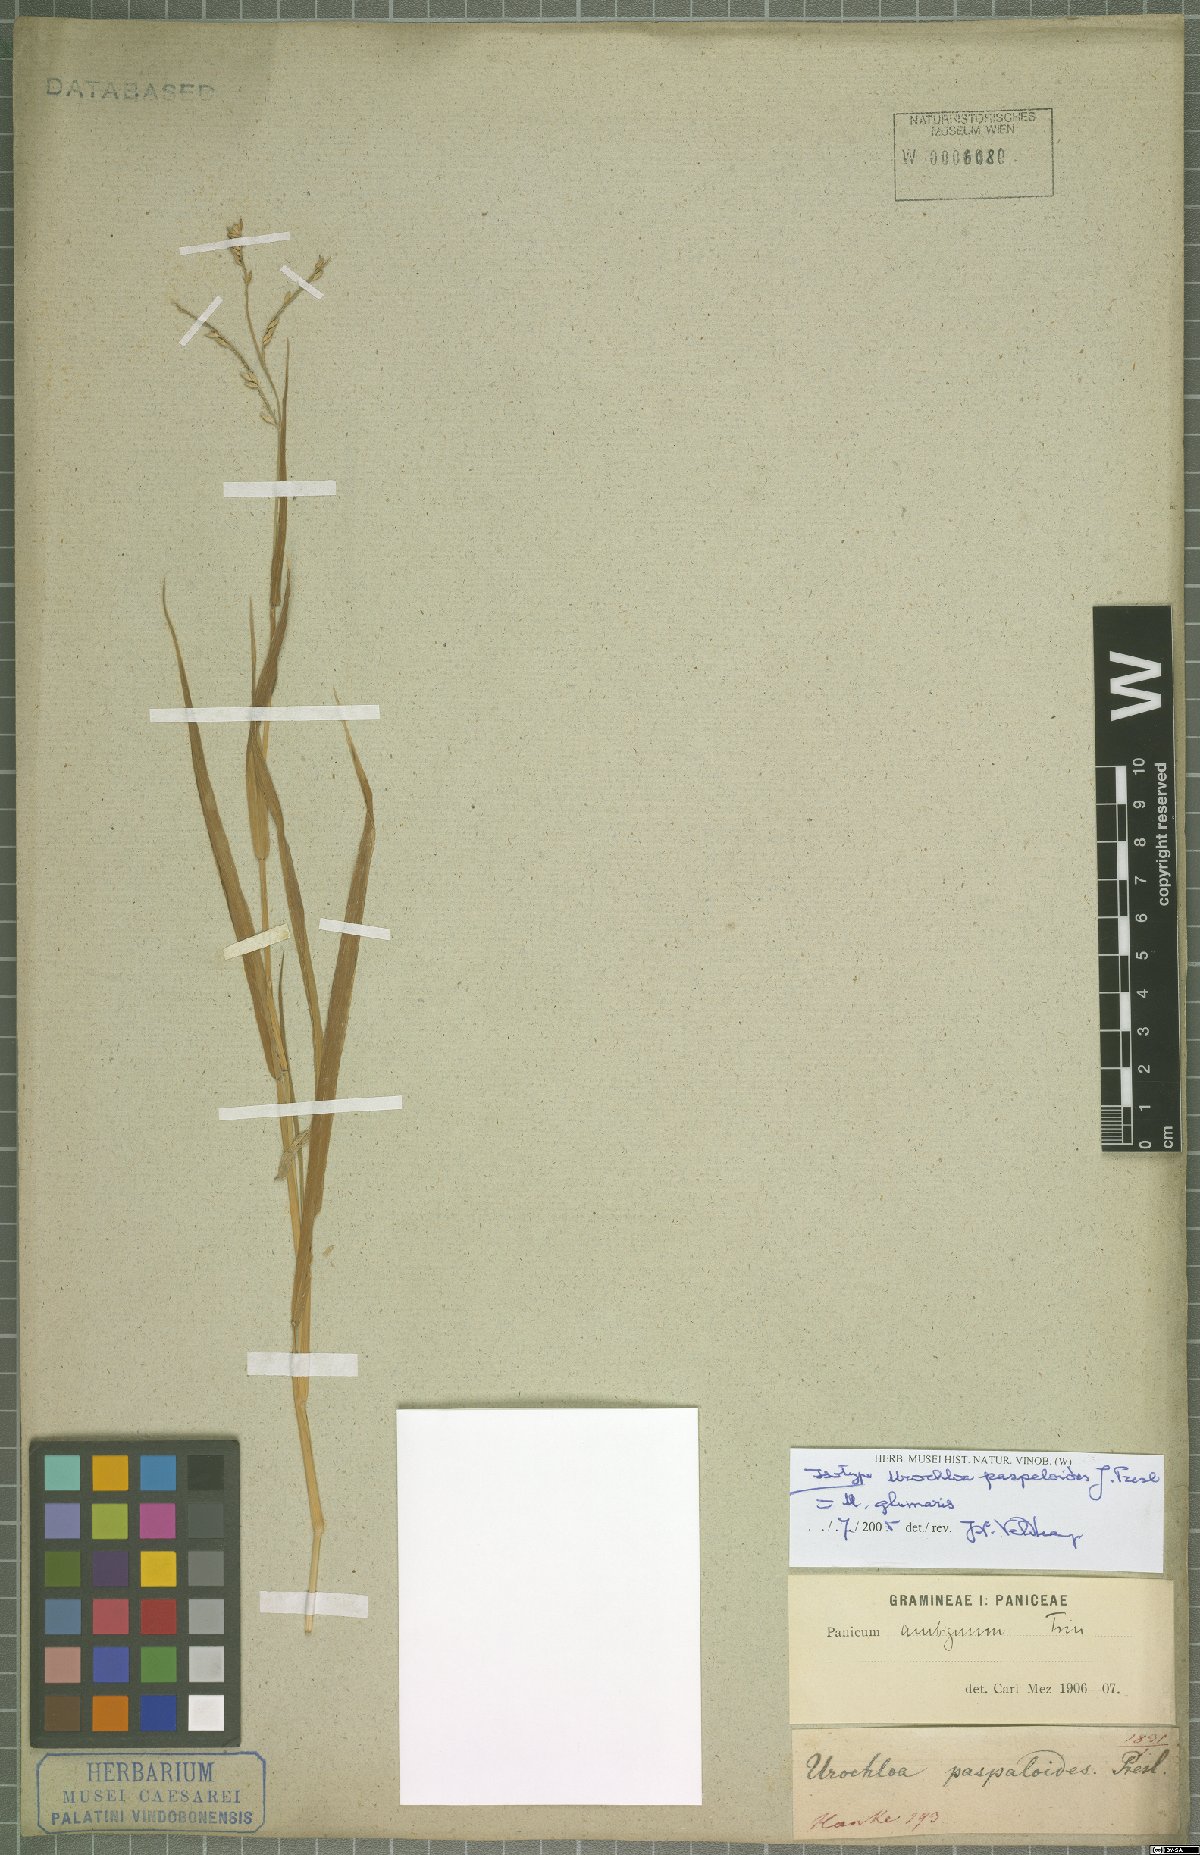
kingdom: Plantae
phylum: Tracheophyta
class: Liliopsida
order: Poales
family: Poaceae
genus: Urochloa
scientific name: Urochloa glumaris
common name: Thurston grass
